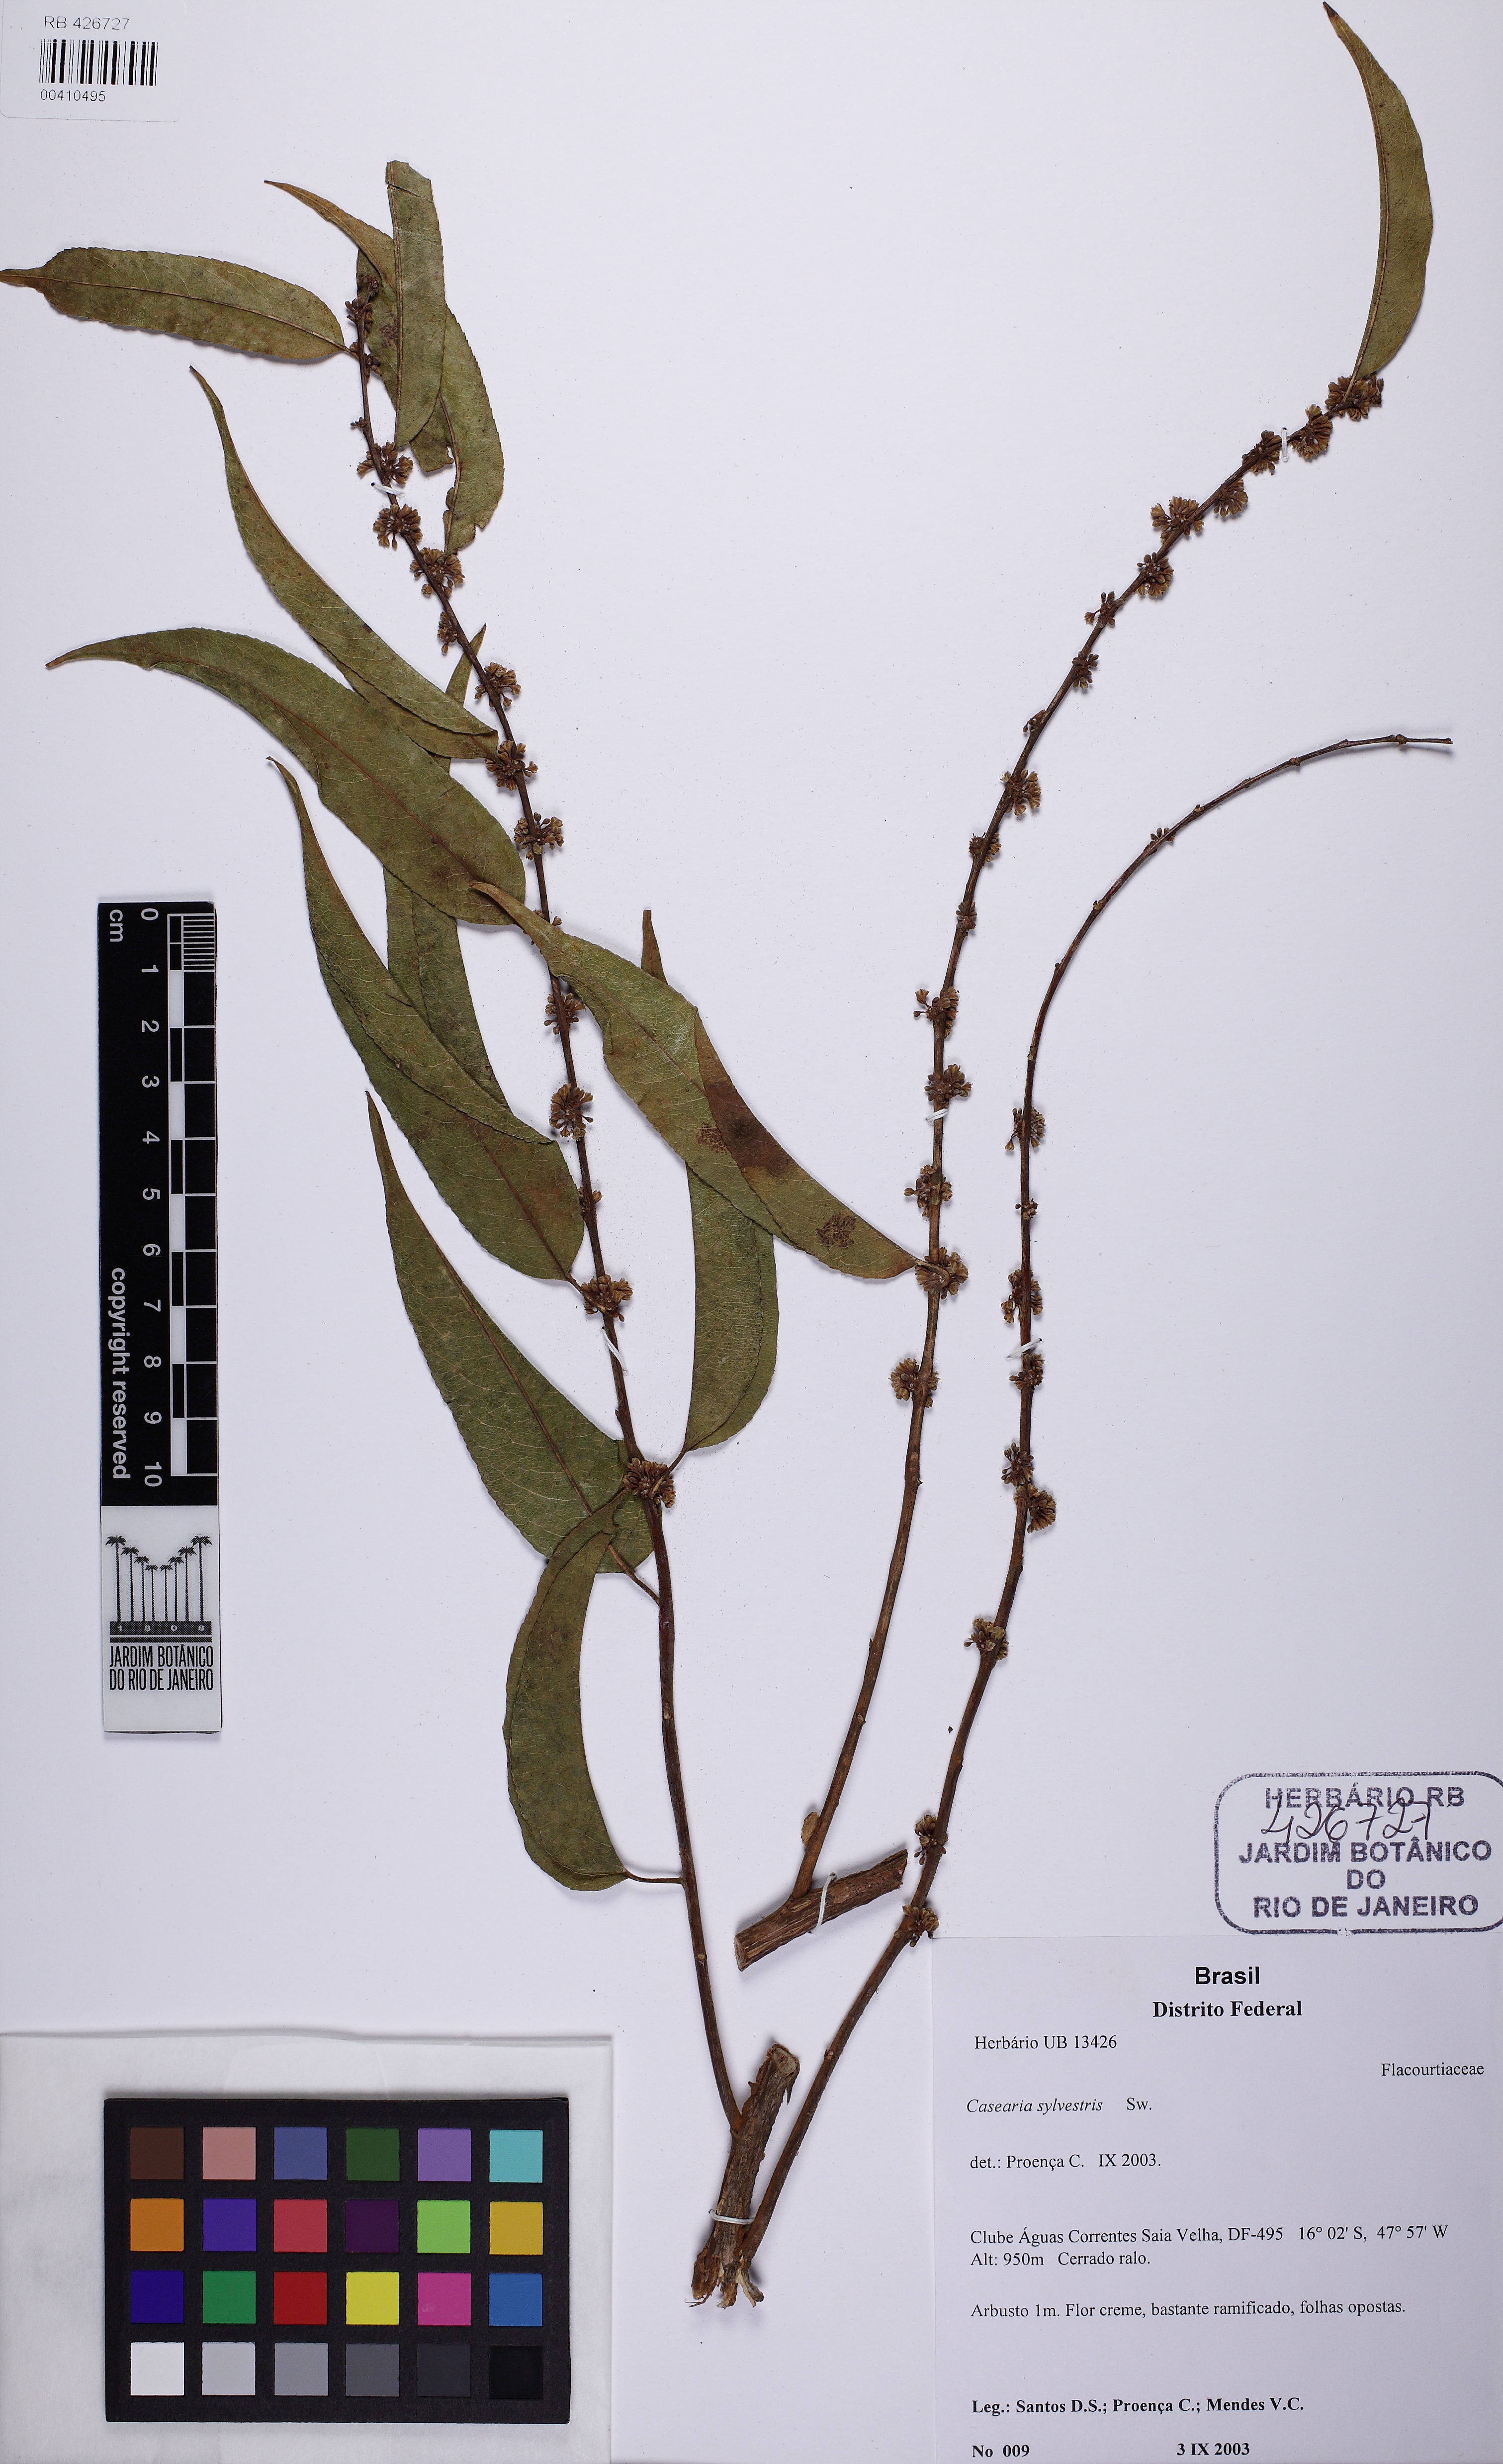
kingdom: Plantae
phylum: Tracheophyta
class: Magnoliopsida
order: Malpighiales
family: Salicaceae
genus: Casearia
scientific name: Casearia sylvestris
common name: Wild sage
